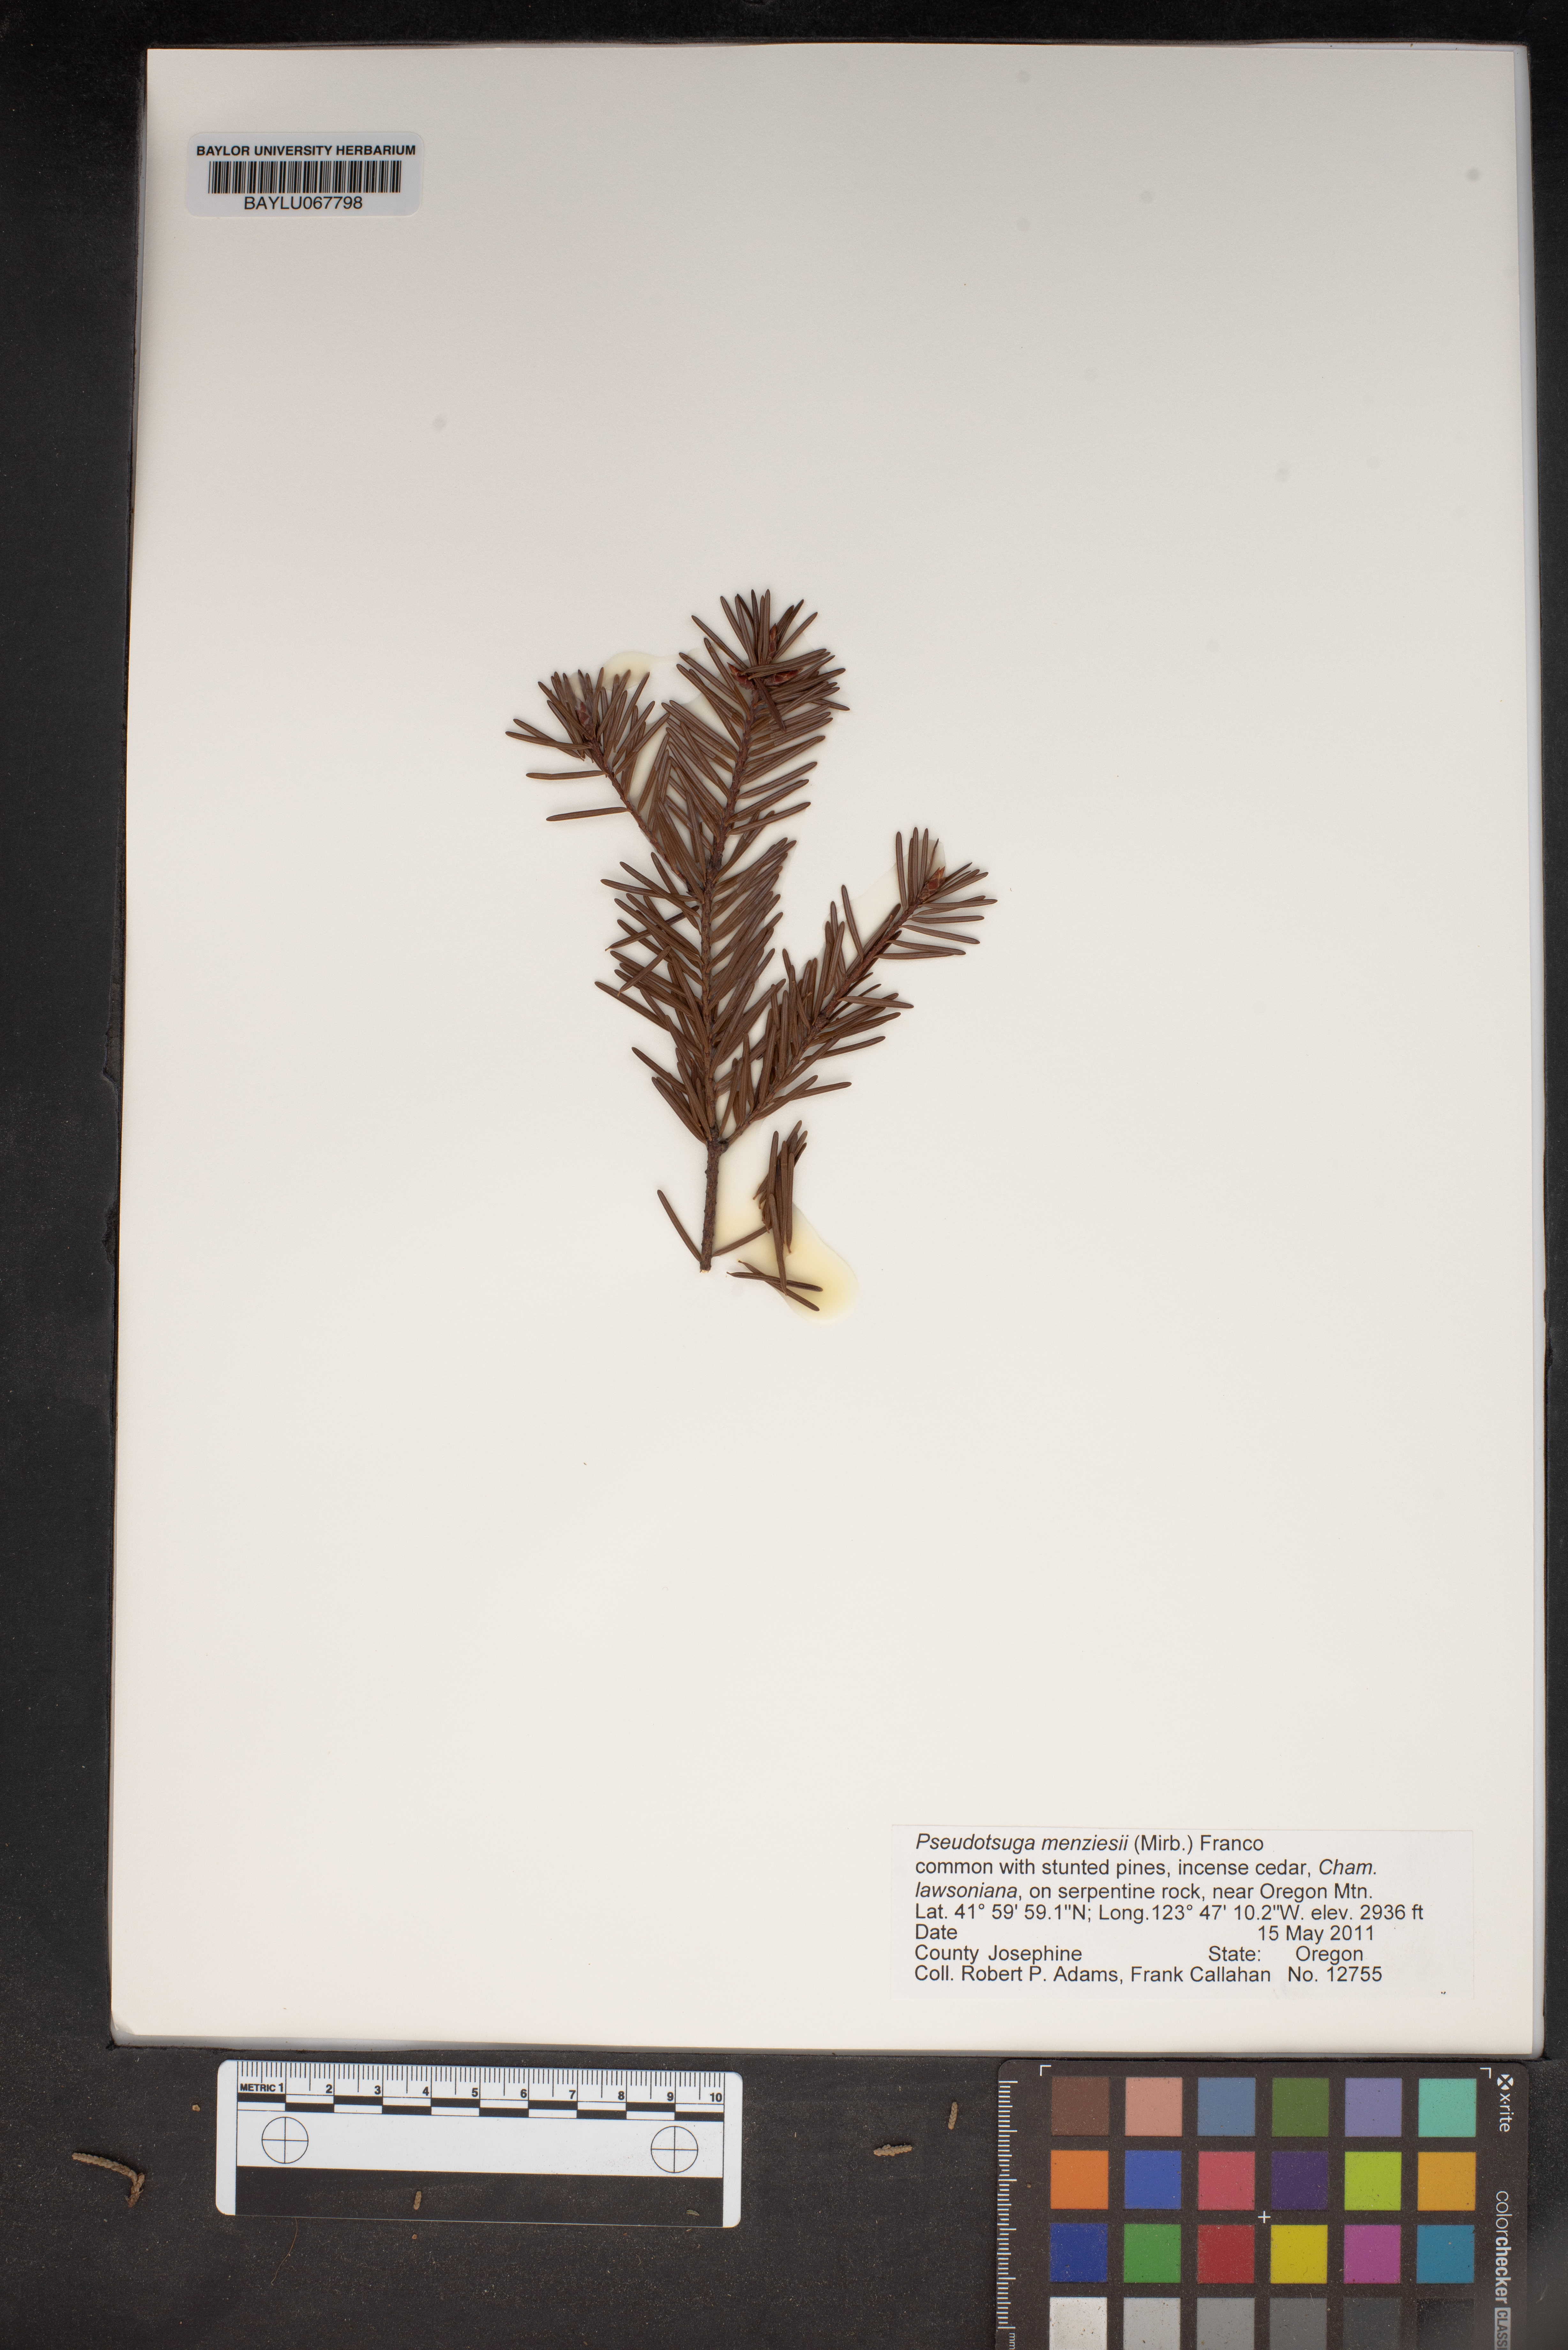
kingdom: Plantae
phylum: Tracheophyta
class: Pinopsida
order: Pinales
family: Pinaceae
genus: Pseudotsuga
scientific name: Pseudotsuga menziesii
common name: Douglas fir
